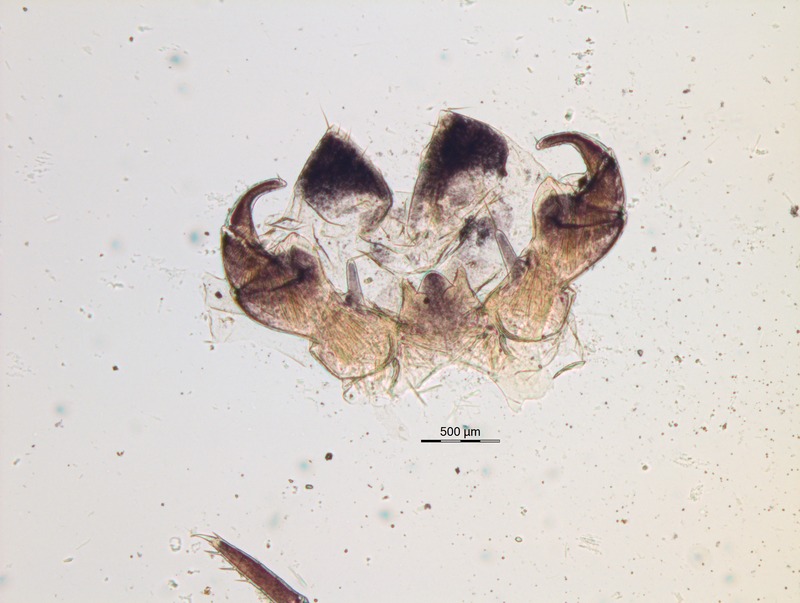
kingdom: Animalia
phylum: Arthropoda
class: Diplopoda
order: Glomerida
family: Glomeridae
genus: Glomeris
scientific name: Glomeris helvetica
